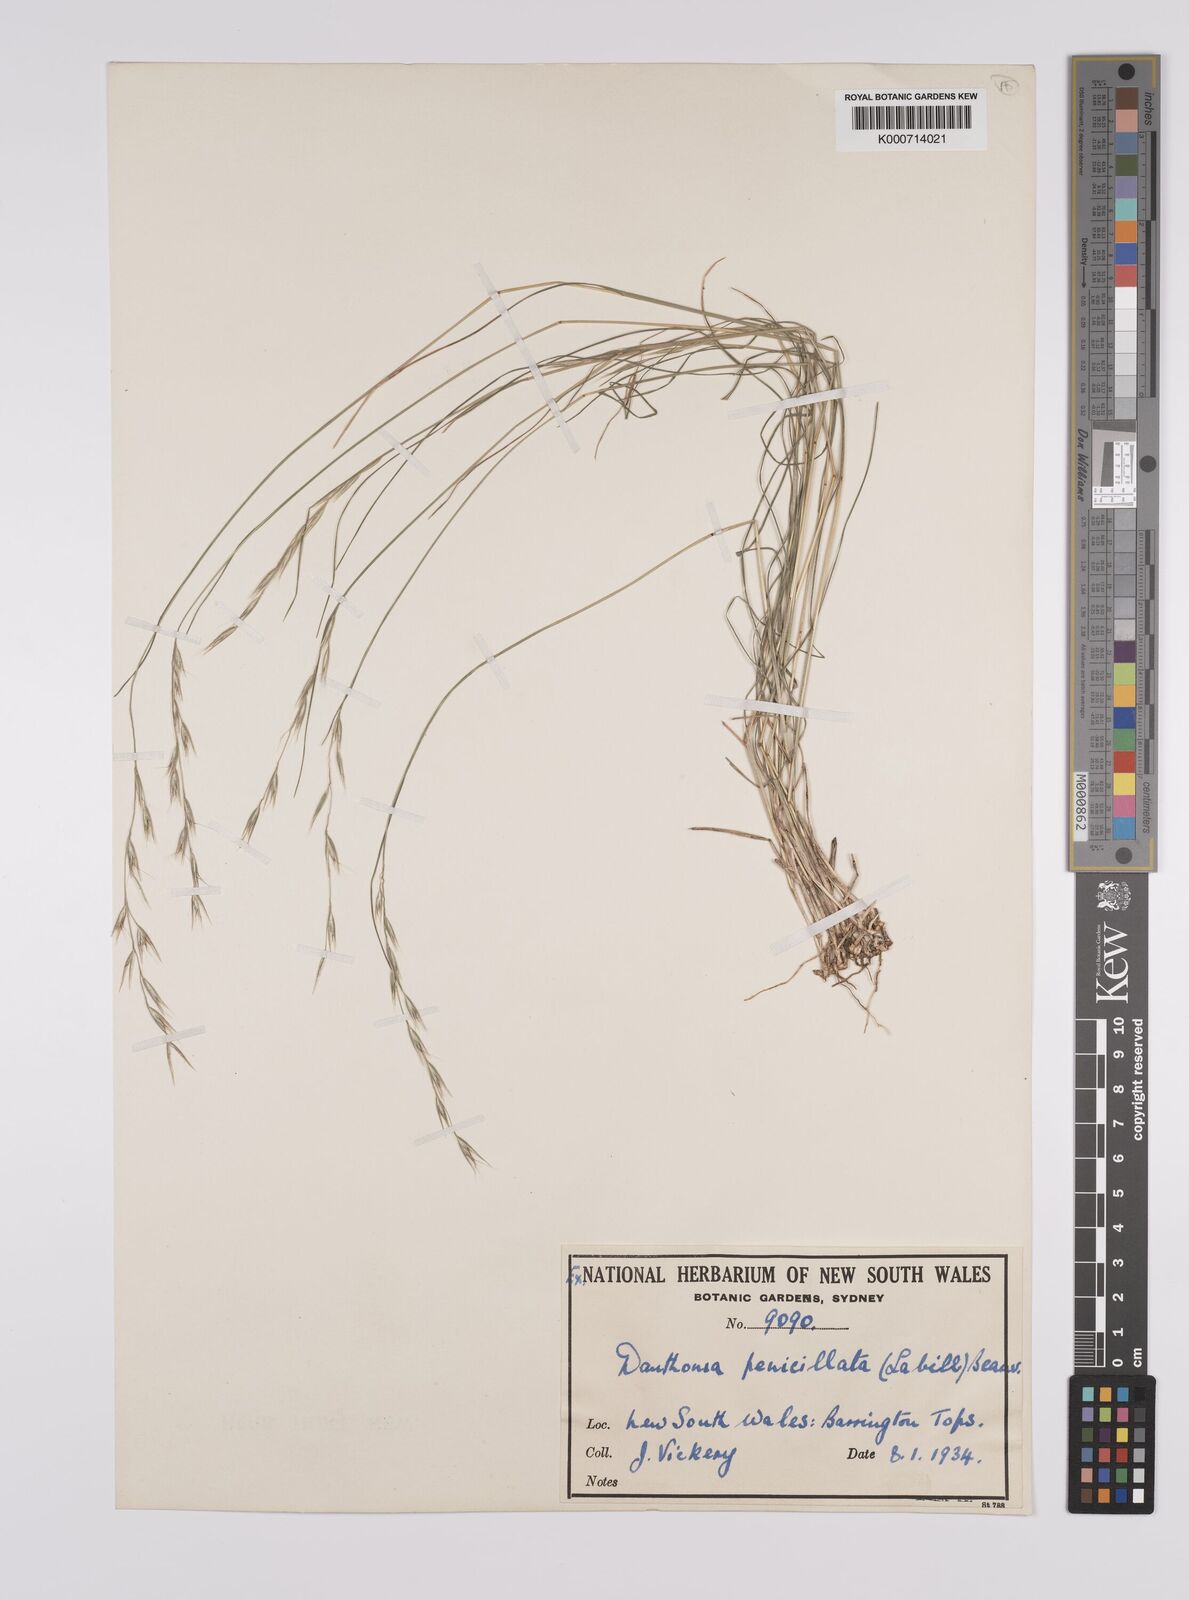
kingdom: Plantae
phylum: Tracheophyta
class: Liliopsida
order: Poales
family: Poaceae
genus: Rytidosperma
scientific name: Rytidosperma penicillatum
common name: Hairy wallaby grass
